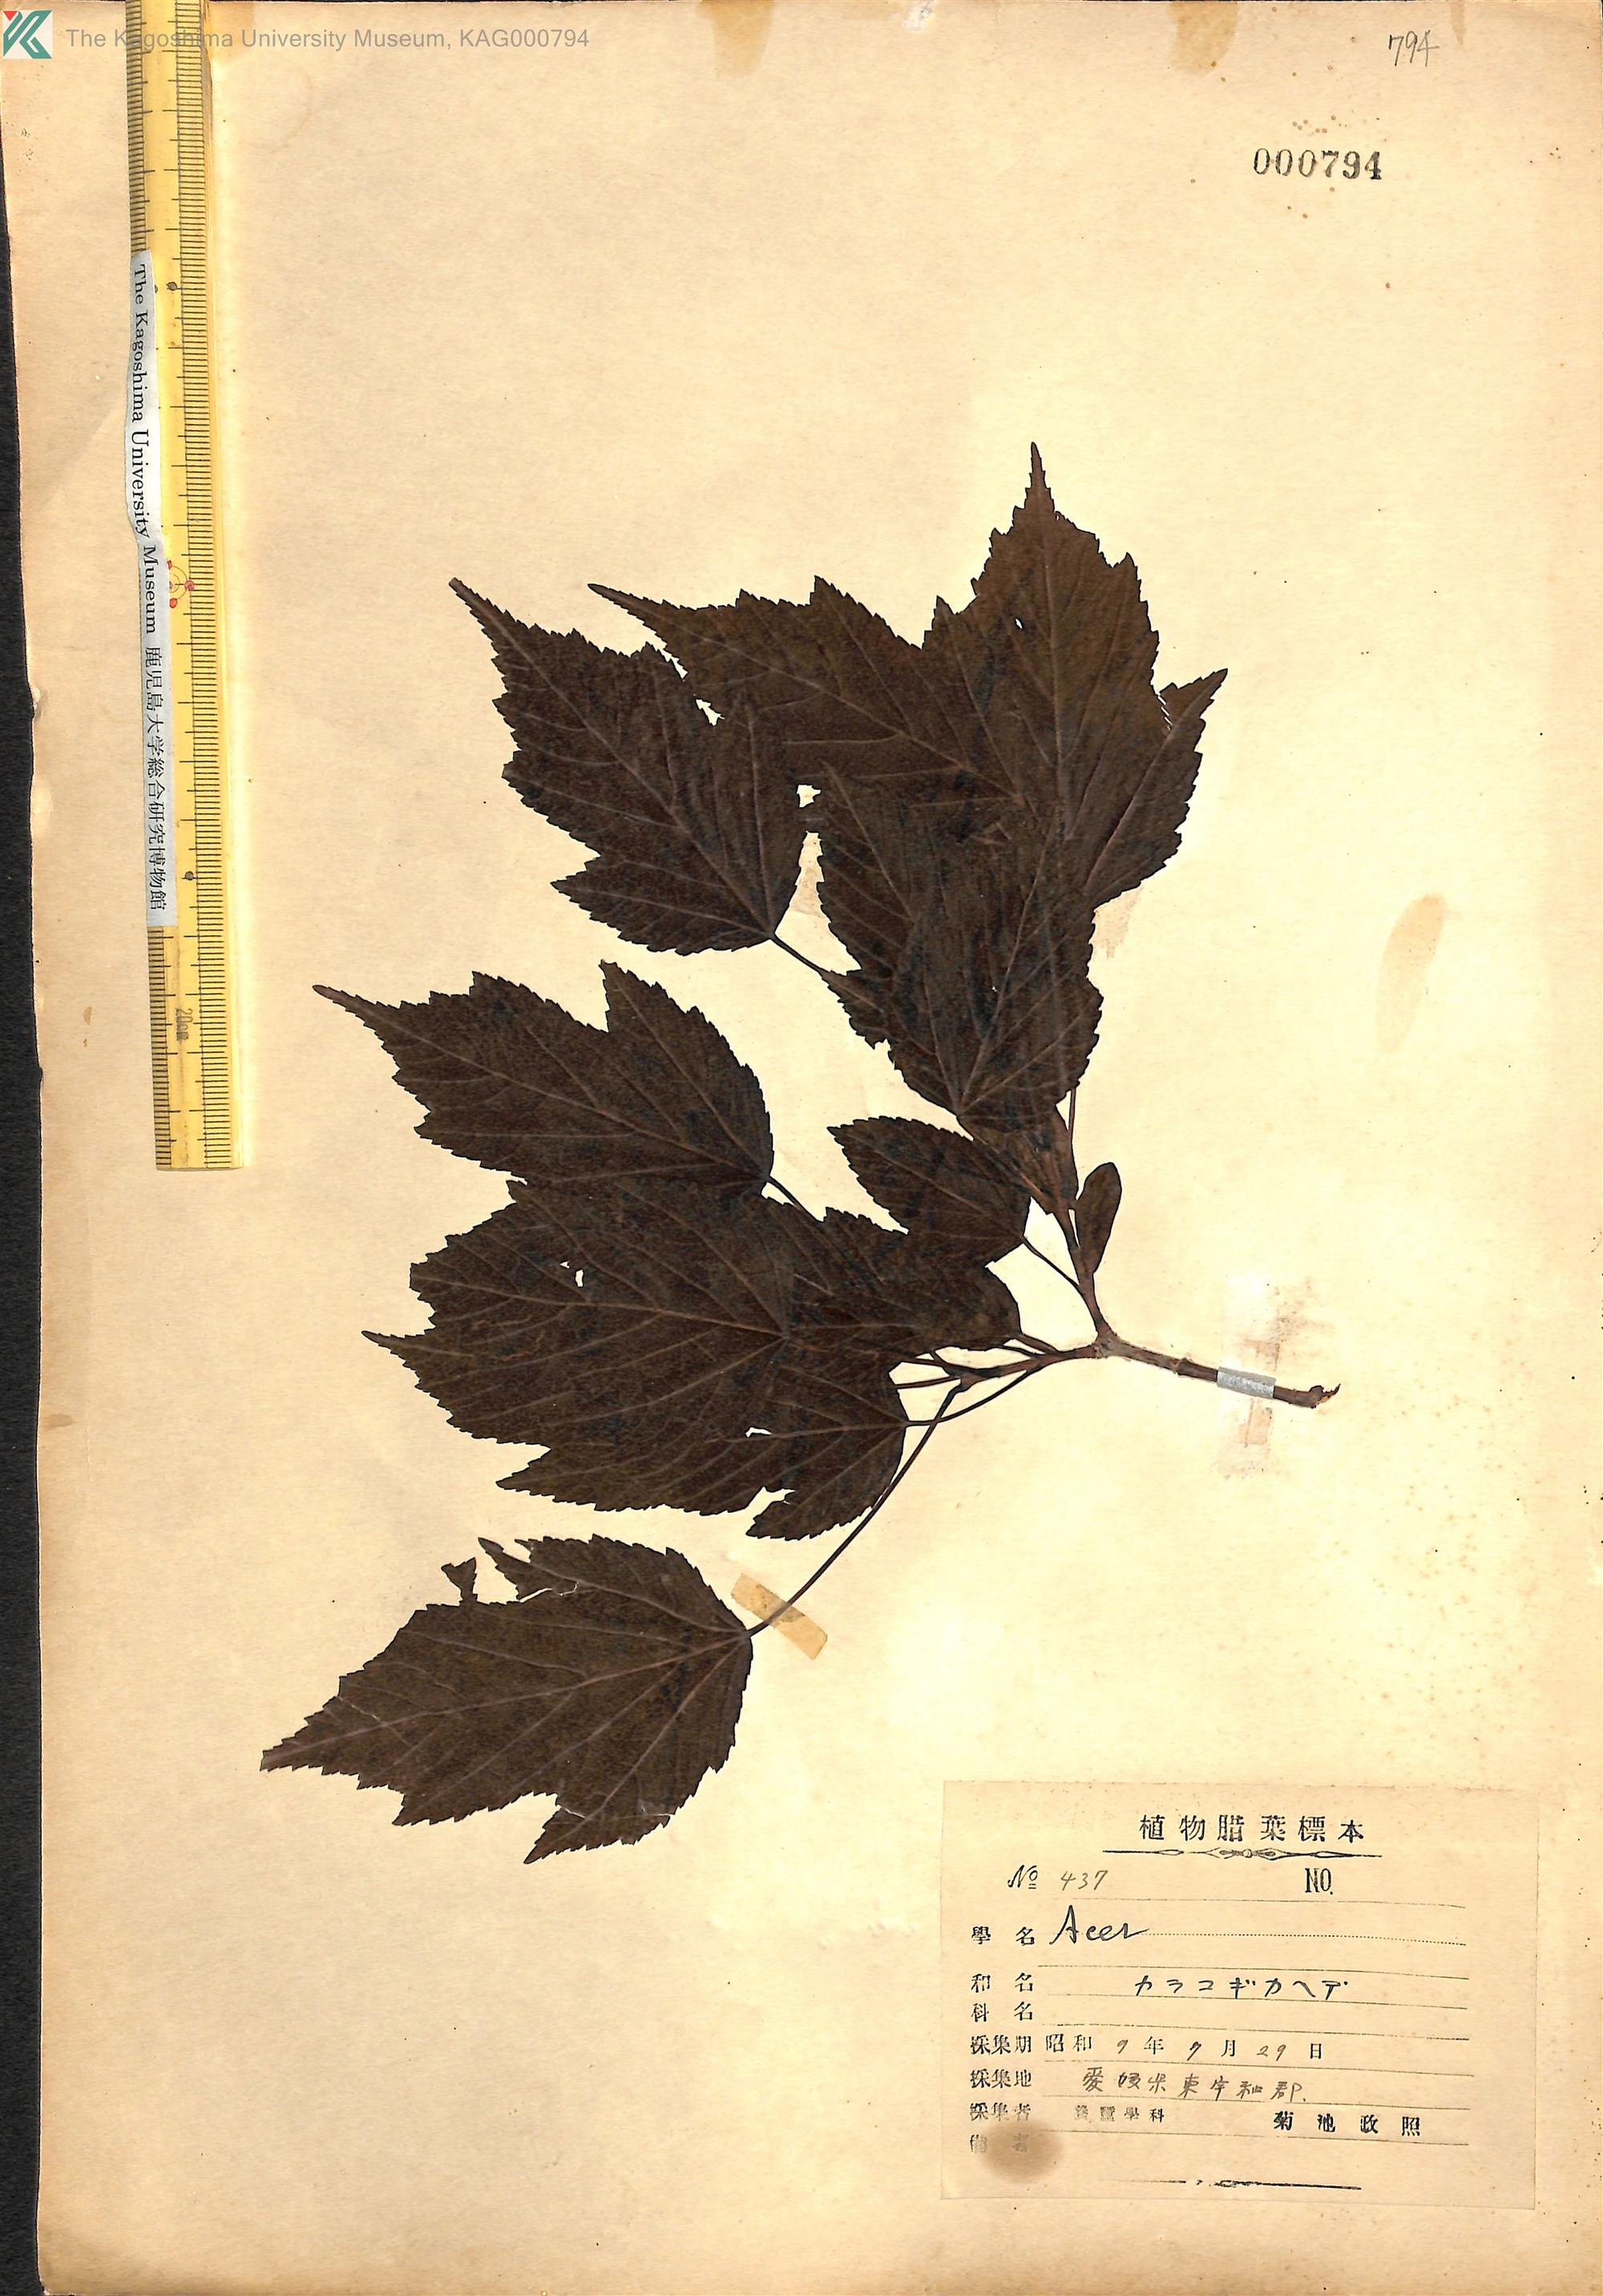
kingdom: Plantae
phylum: Tracheophyta
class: Magnoliopsida
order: Sapindales
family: Sapindaceae
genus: Acer
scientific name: Acer tataricum
